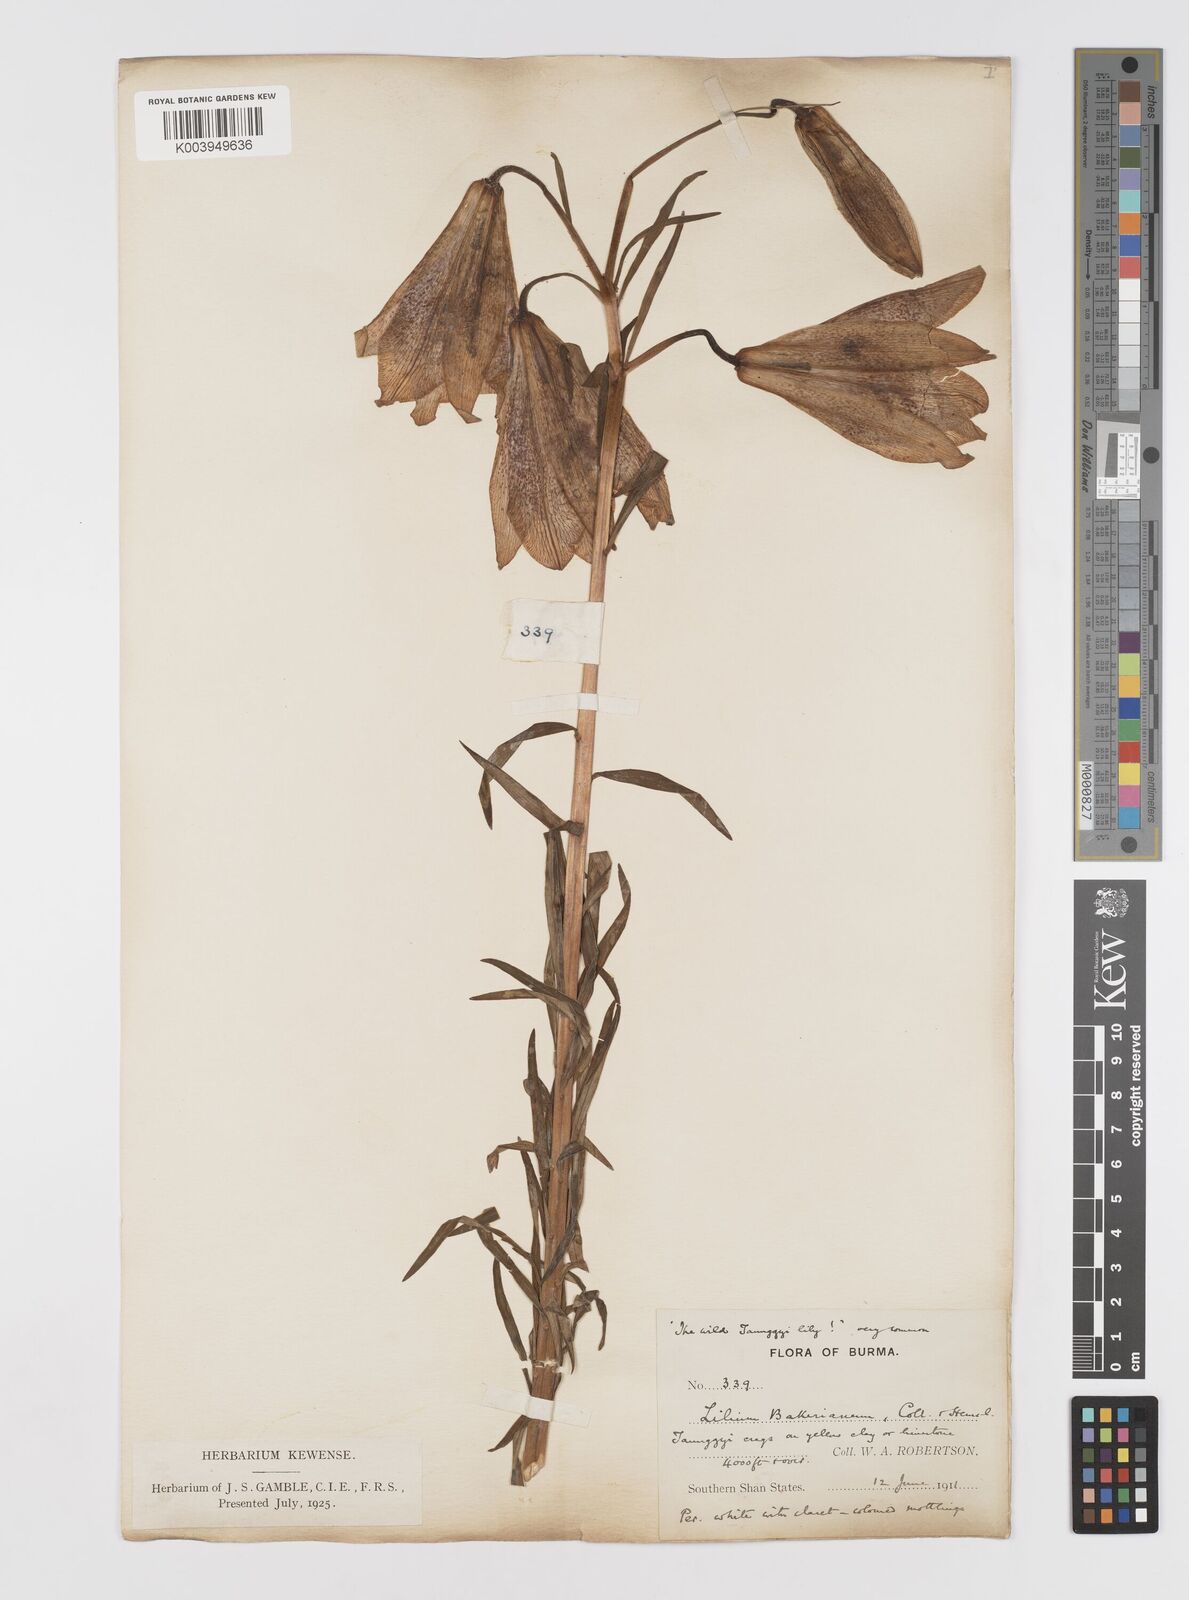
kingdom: Plantae
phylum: Tracheophyta
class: Liliopsida
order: Liliales
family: Liliaceae
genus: Lilium
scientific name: Lilium bakerianum
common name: Baker's lily
